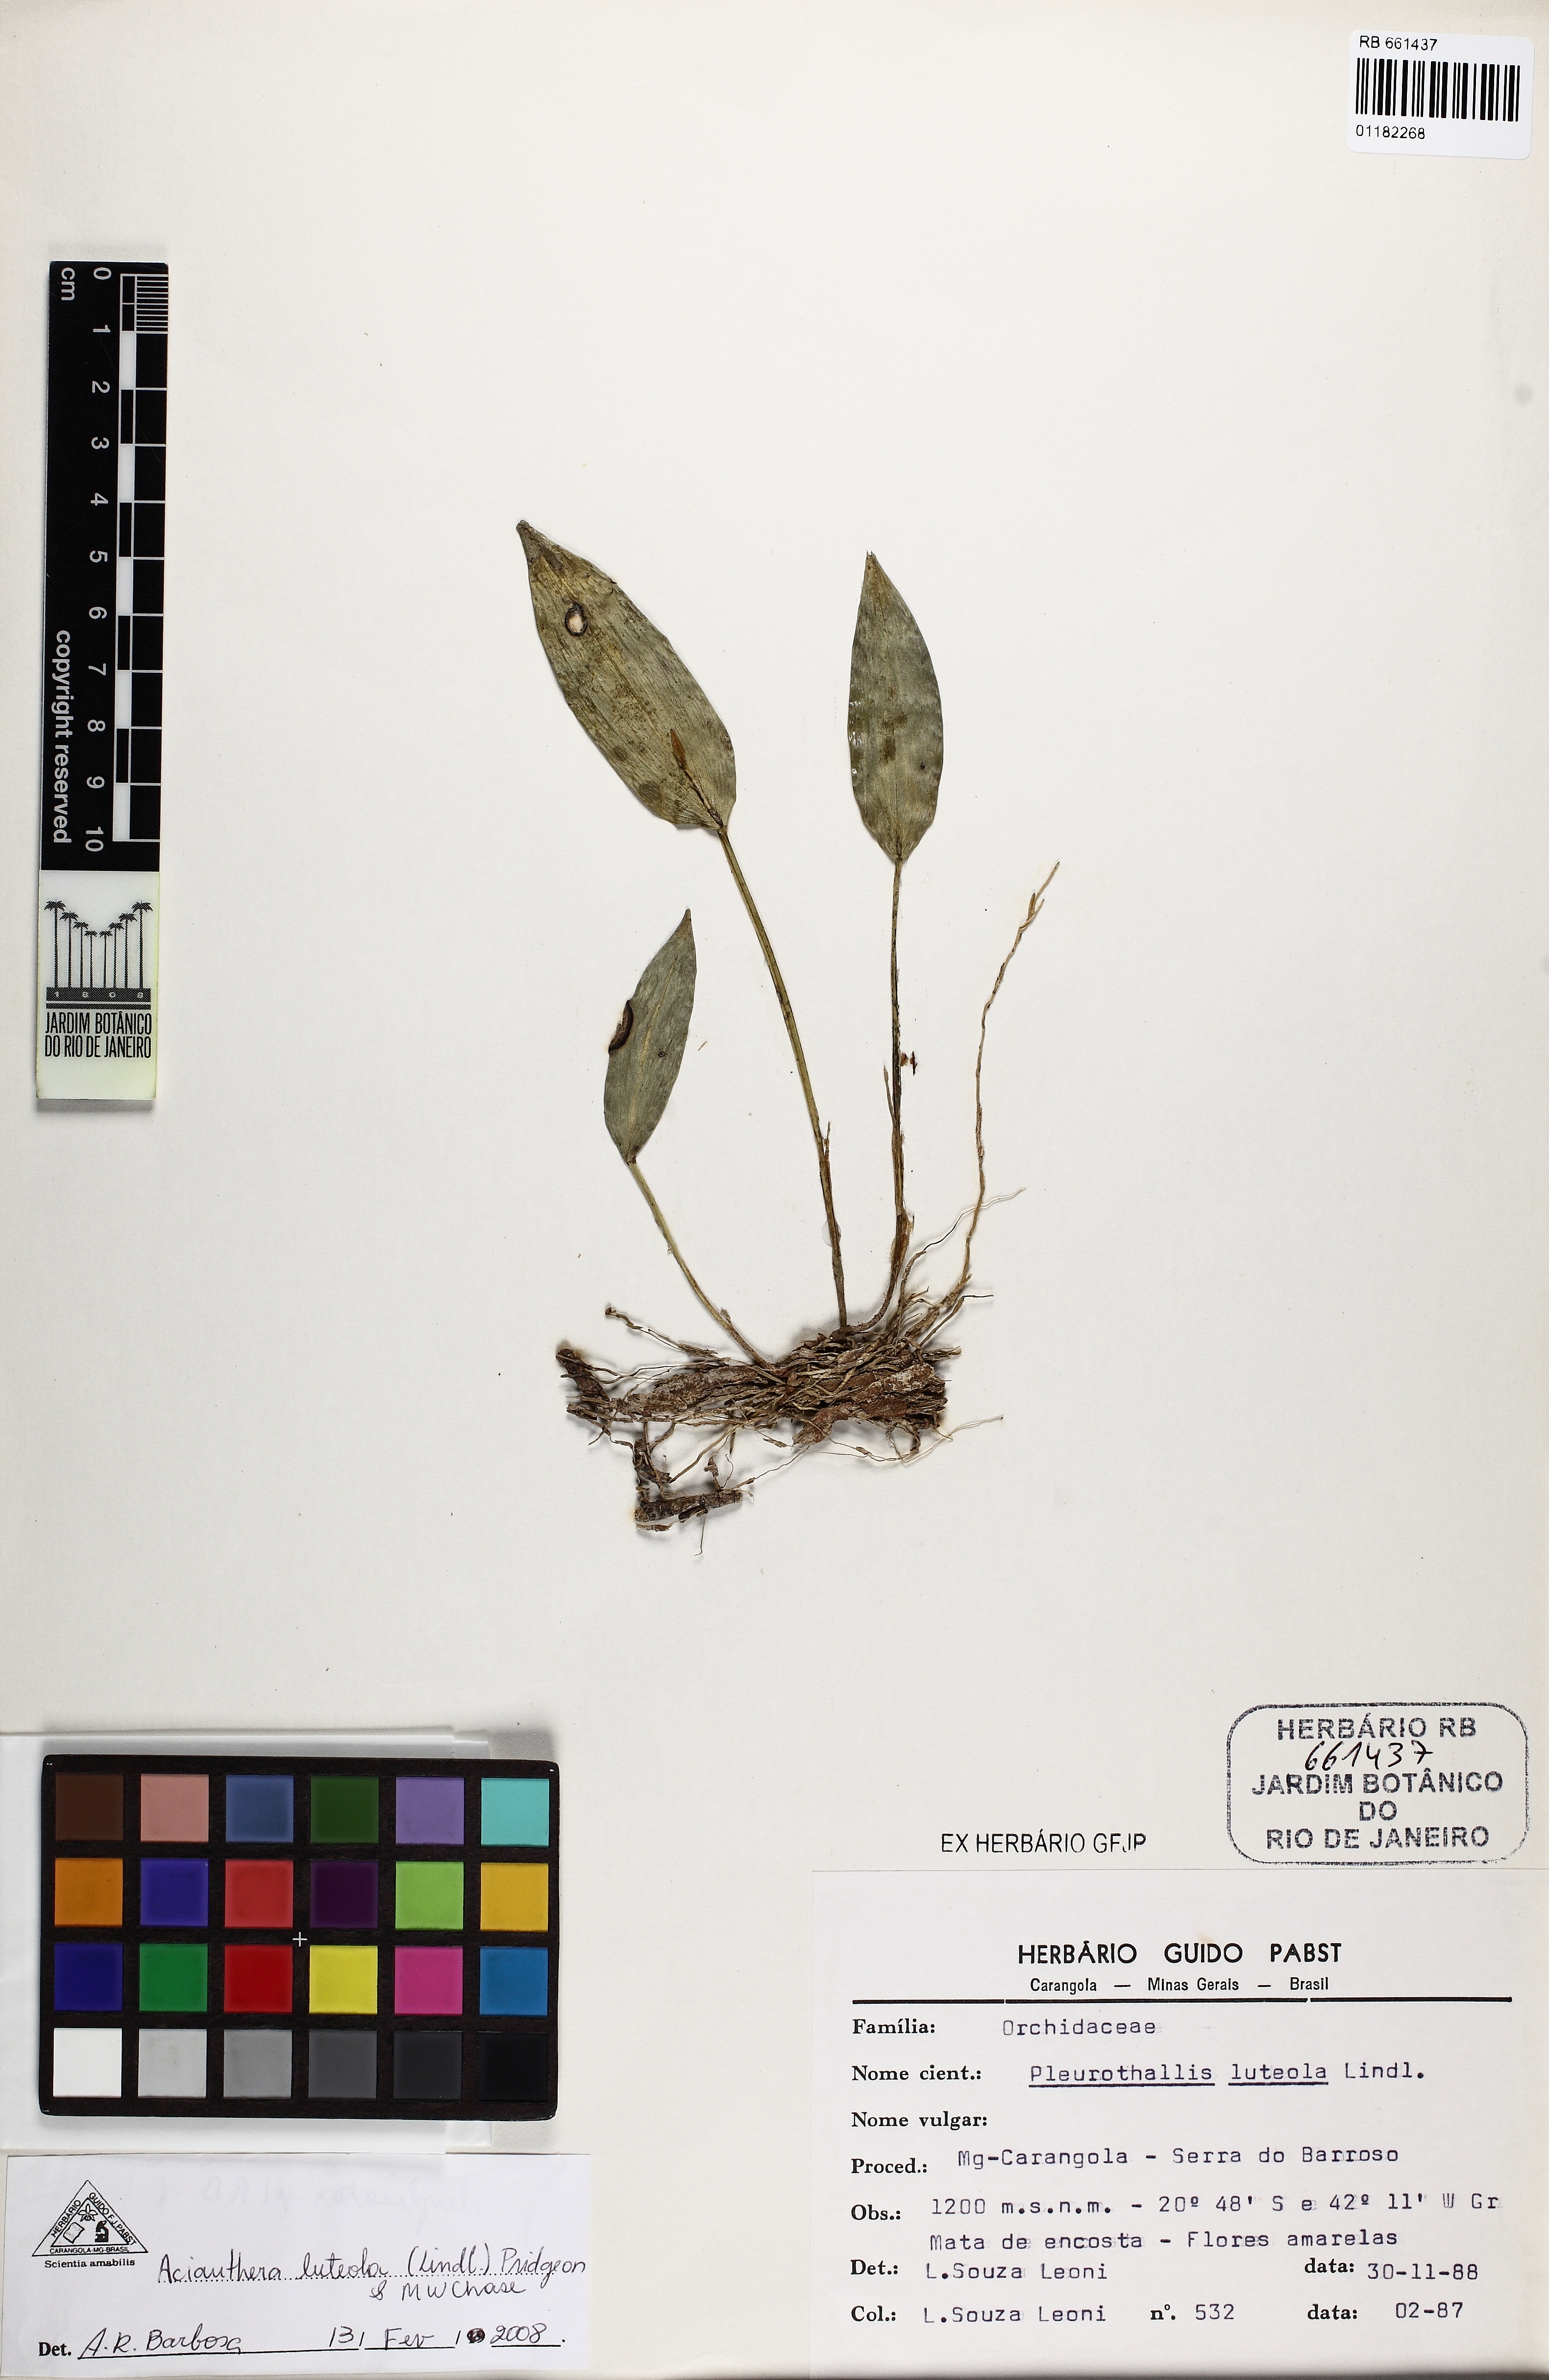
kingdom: Plantae
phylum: Tracheophyta
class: Liliopsida
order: Asparagales
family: Orchidaceae
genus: Acianthera
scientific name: Acianthera luteola
